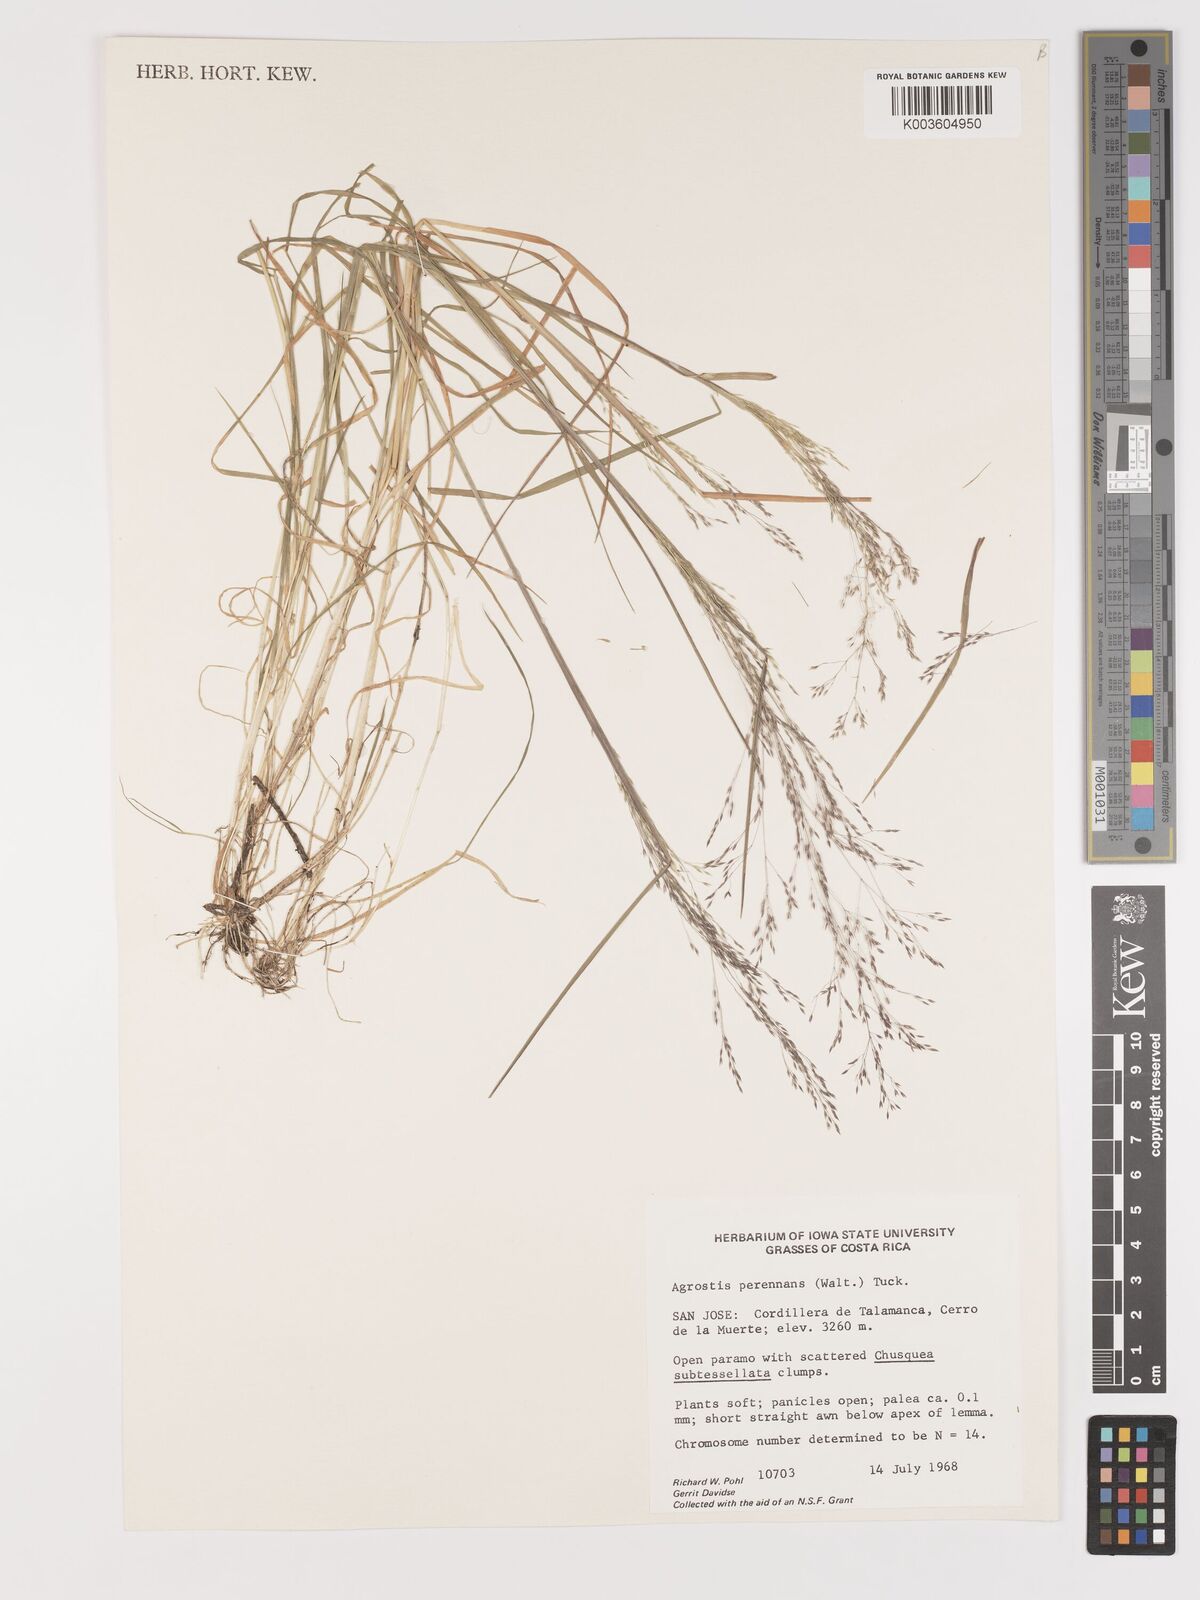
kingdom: Plantae
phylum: Tracheophyta
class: Liliopsida
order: Poales
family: Poaceae
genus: Agrostis
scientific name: Agrostis perennans
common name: Autumn bent
